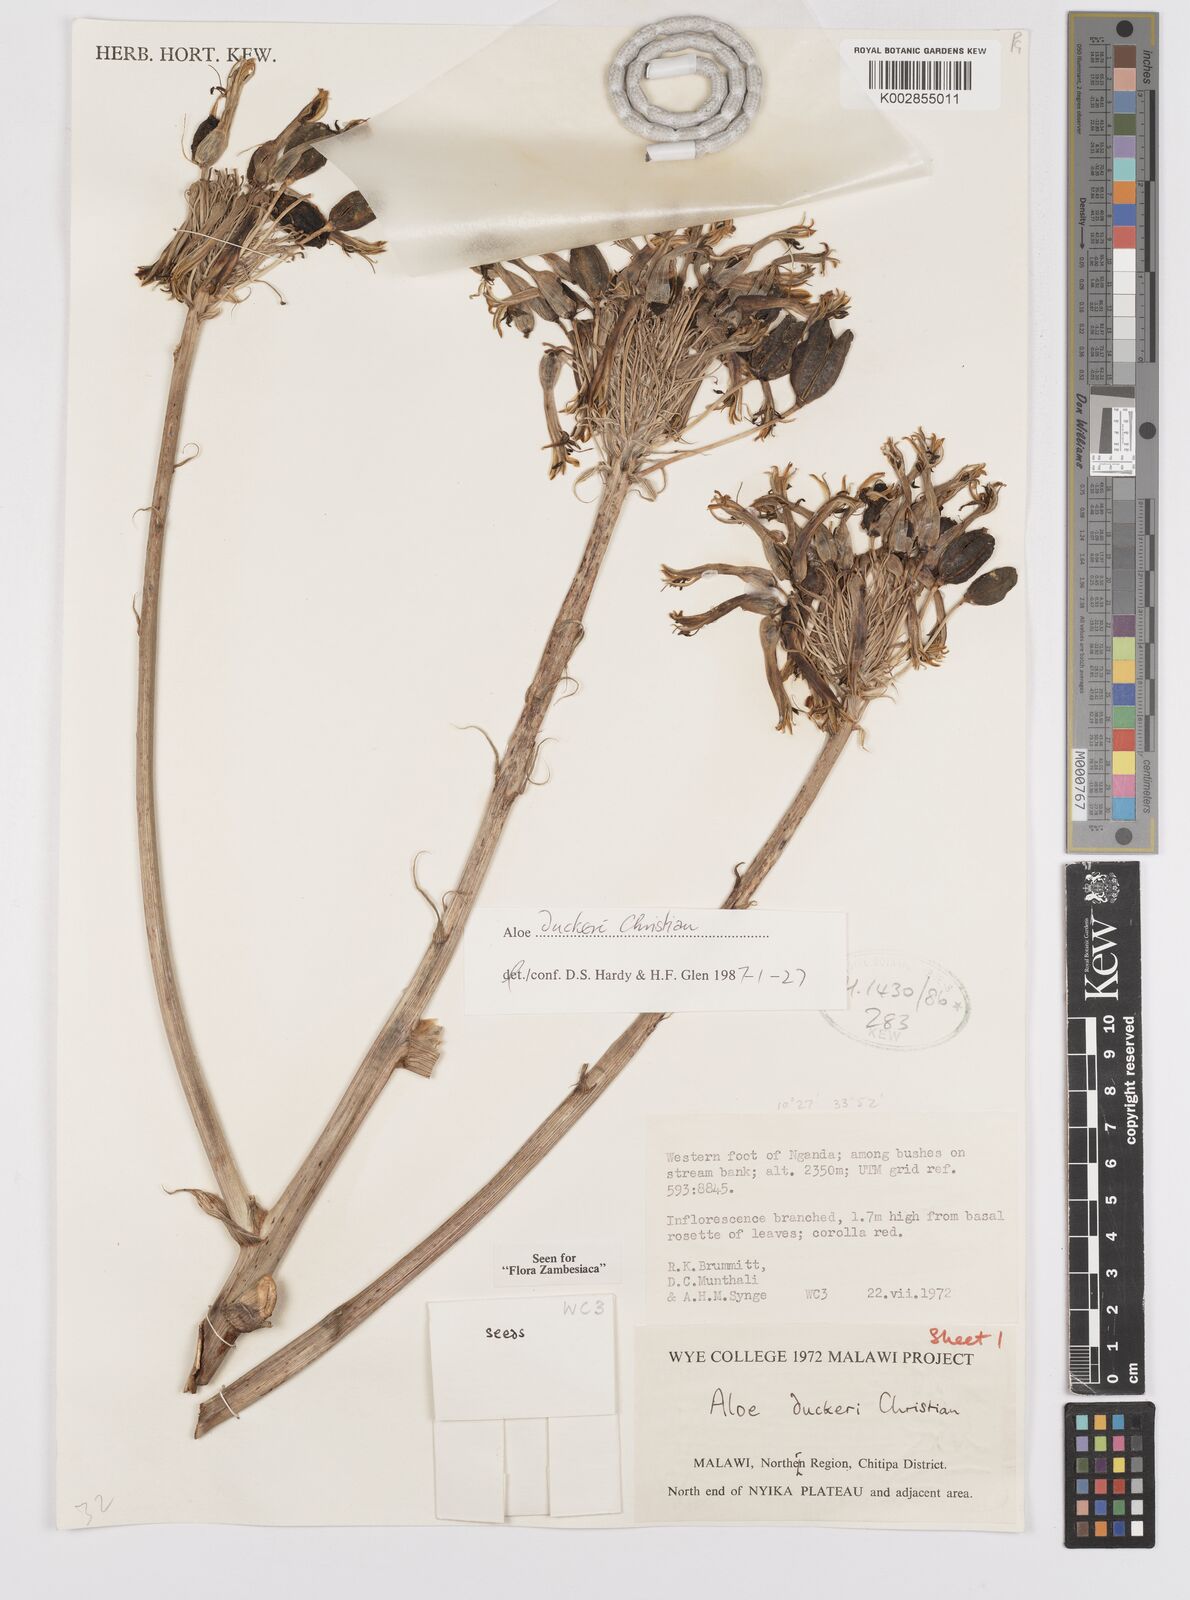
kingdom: Plantae
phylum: Tracheophyta
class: Liliopsida
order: Asparagales
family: Asphodelaceae
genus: Aloe
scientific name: Aloe duckeri
